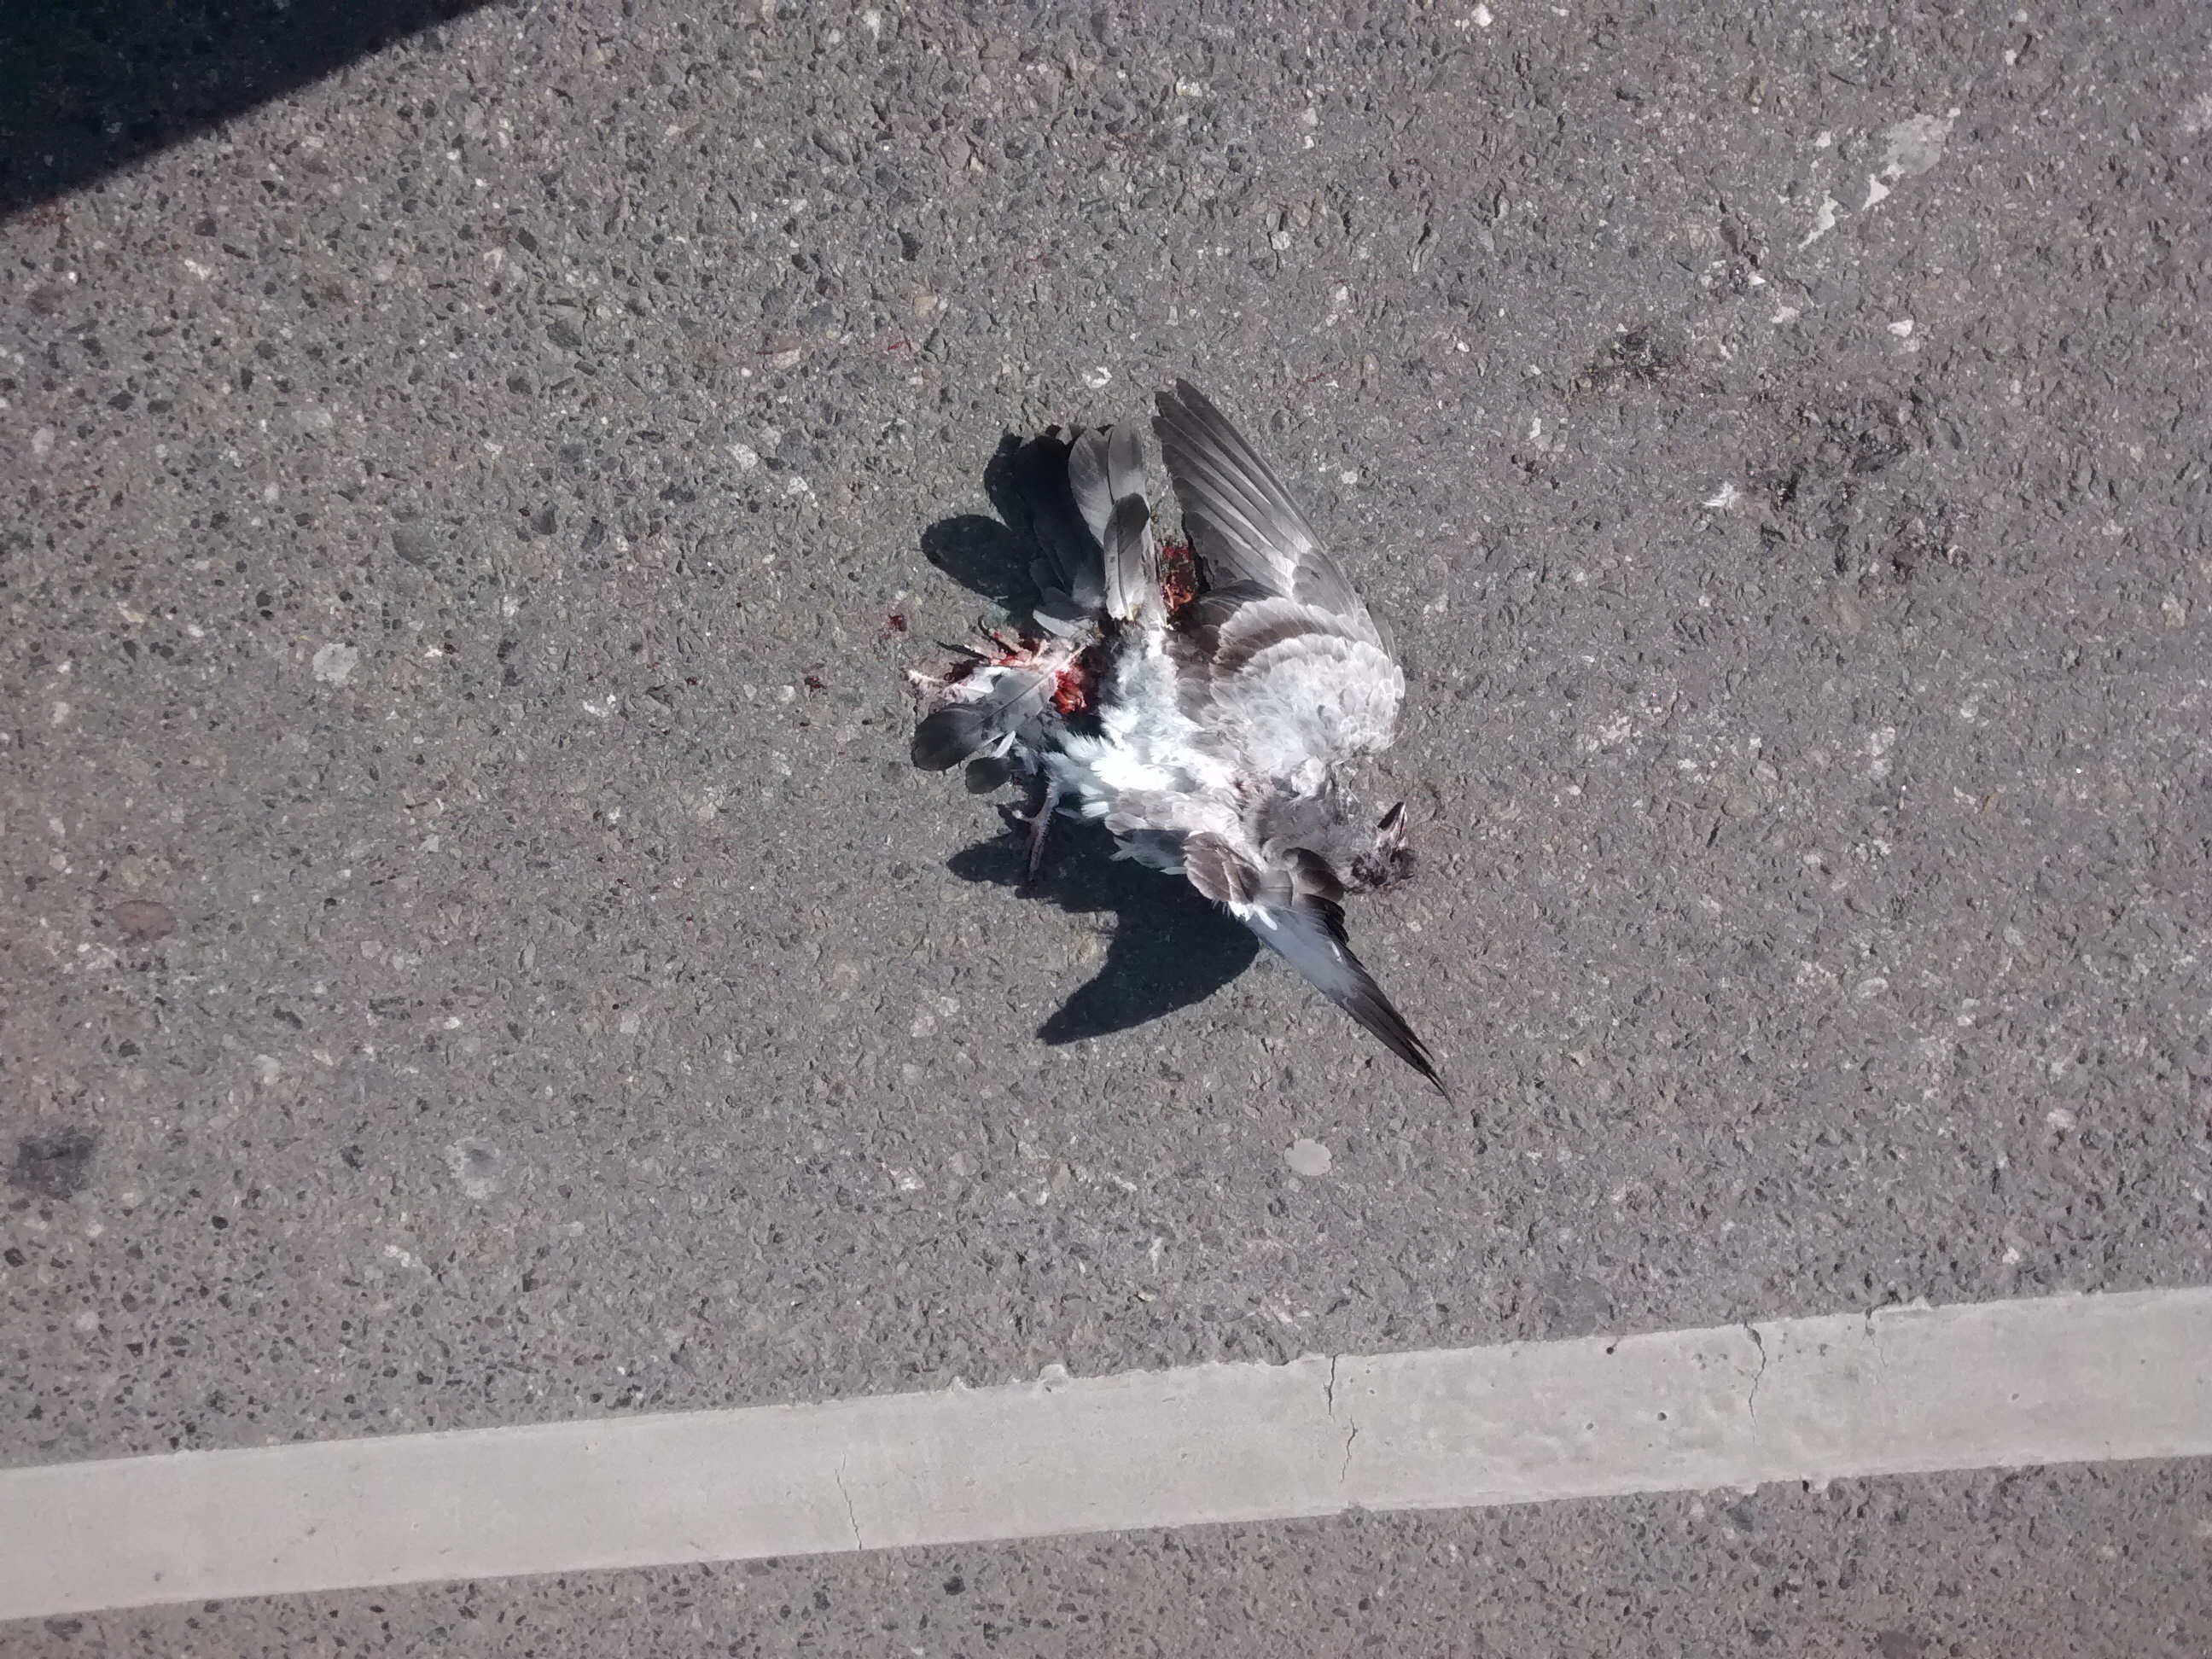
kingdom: Animalia
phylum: Chordata
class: Aves
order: Columbiformes
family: Columbidae
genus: Columba
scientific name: Columba livia
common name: Rock pigeon
